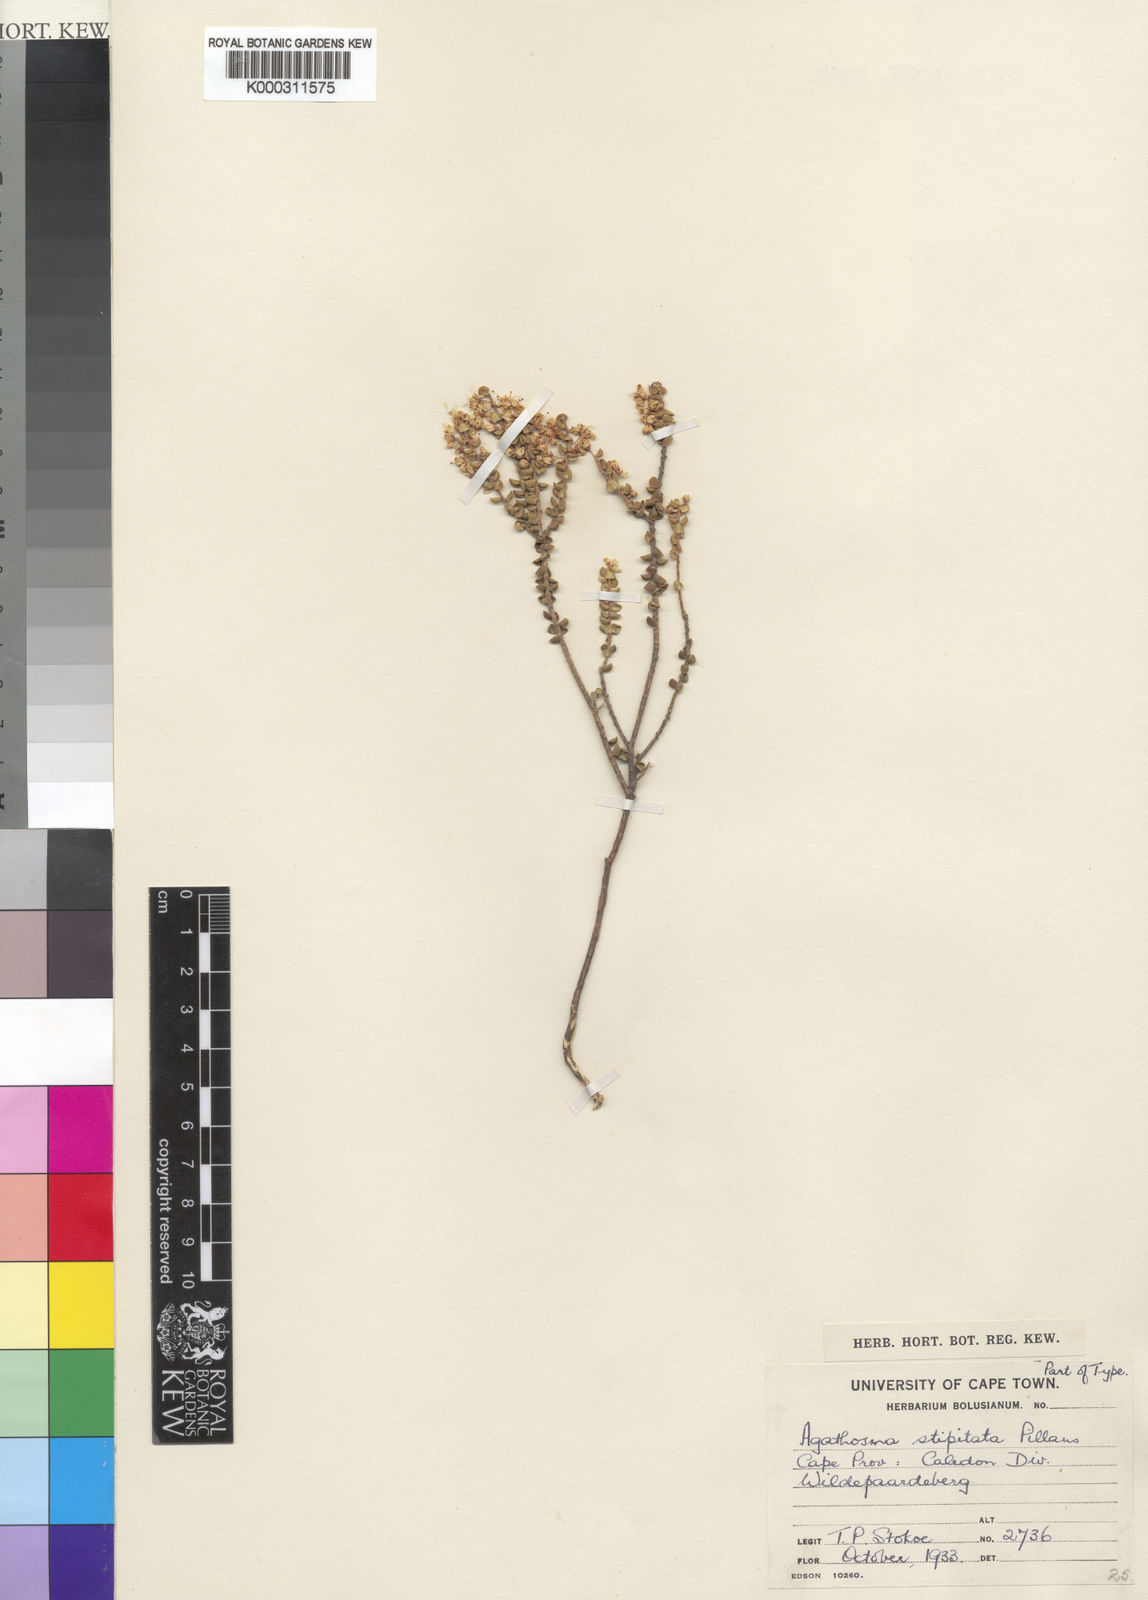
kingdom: Plantae
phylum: Tracheophyta
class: Magnoliopsida
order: Sapindales
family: Rutaceae
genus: Agathosma
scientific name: Agathosma stipitata
